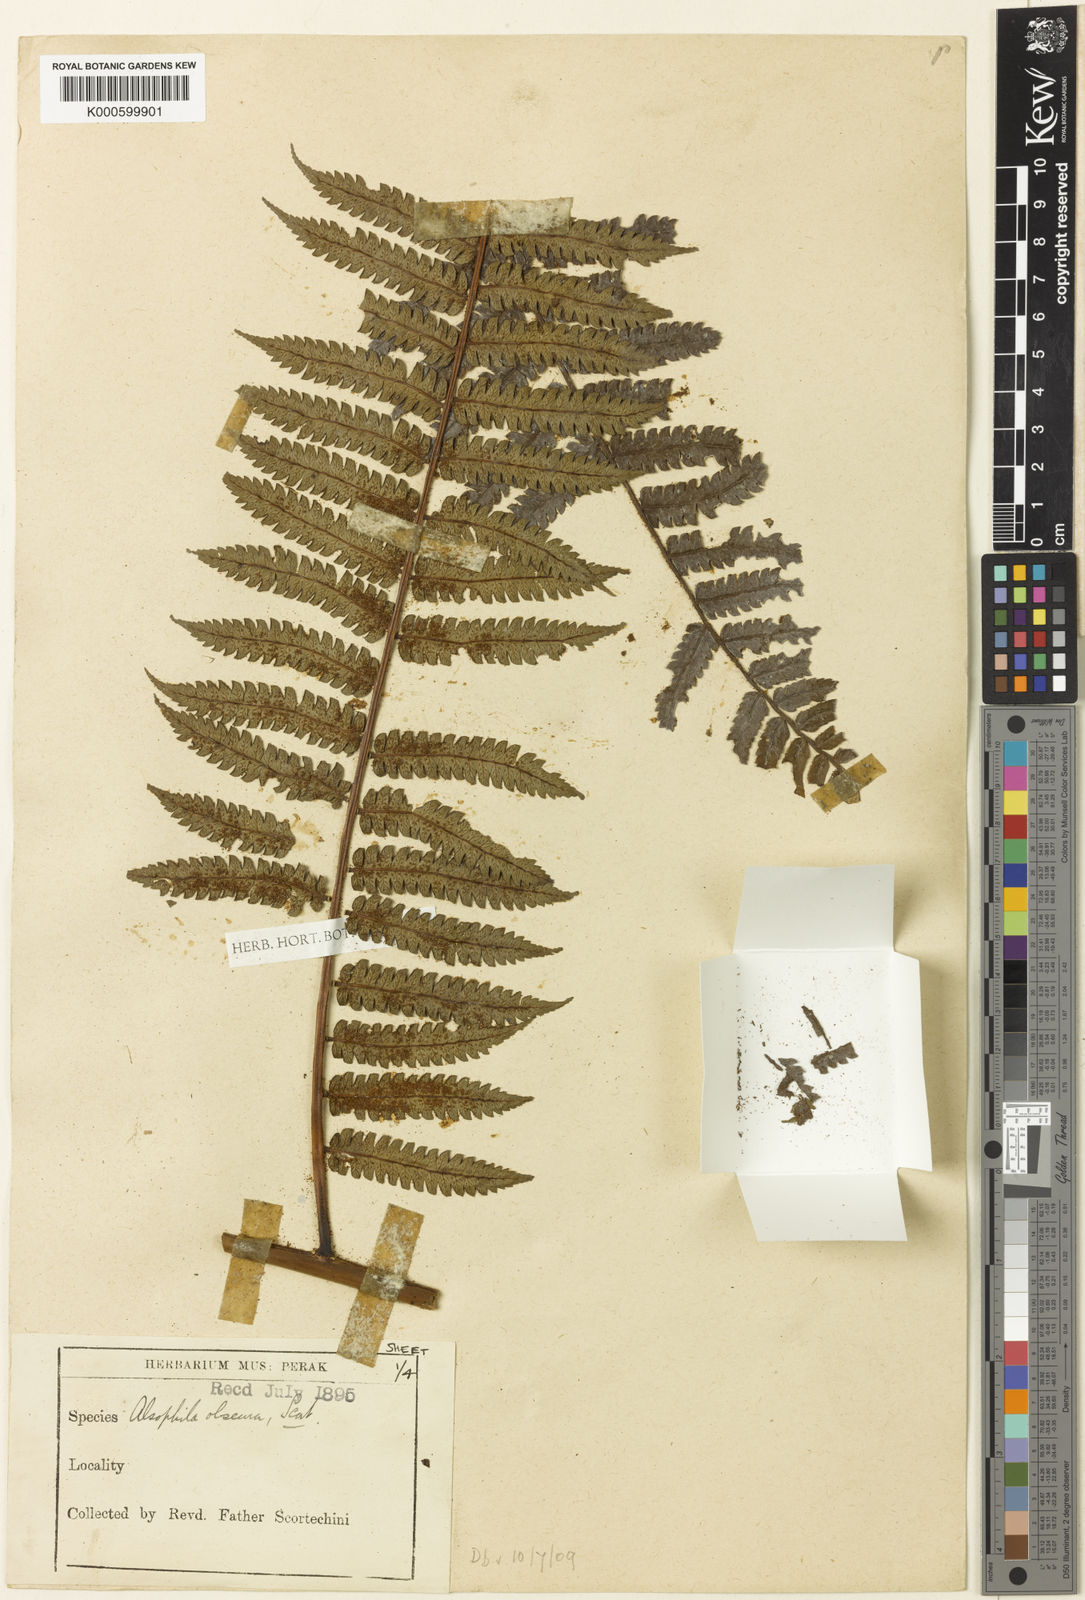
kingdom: Plantae
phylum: Tracheophyta
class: Polypodiopsida
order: Cyatheales
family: Cyatheaceae
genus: Sphaeropteris
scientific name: Sphaeropteris obscura
